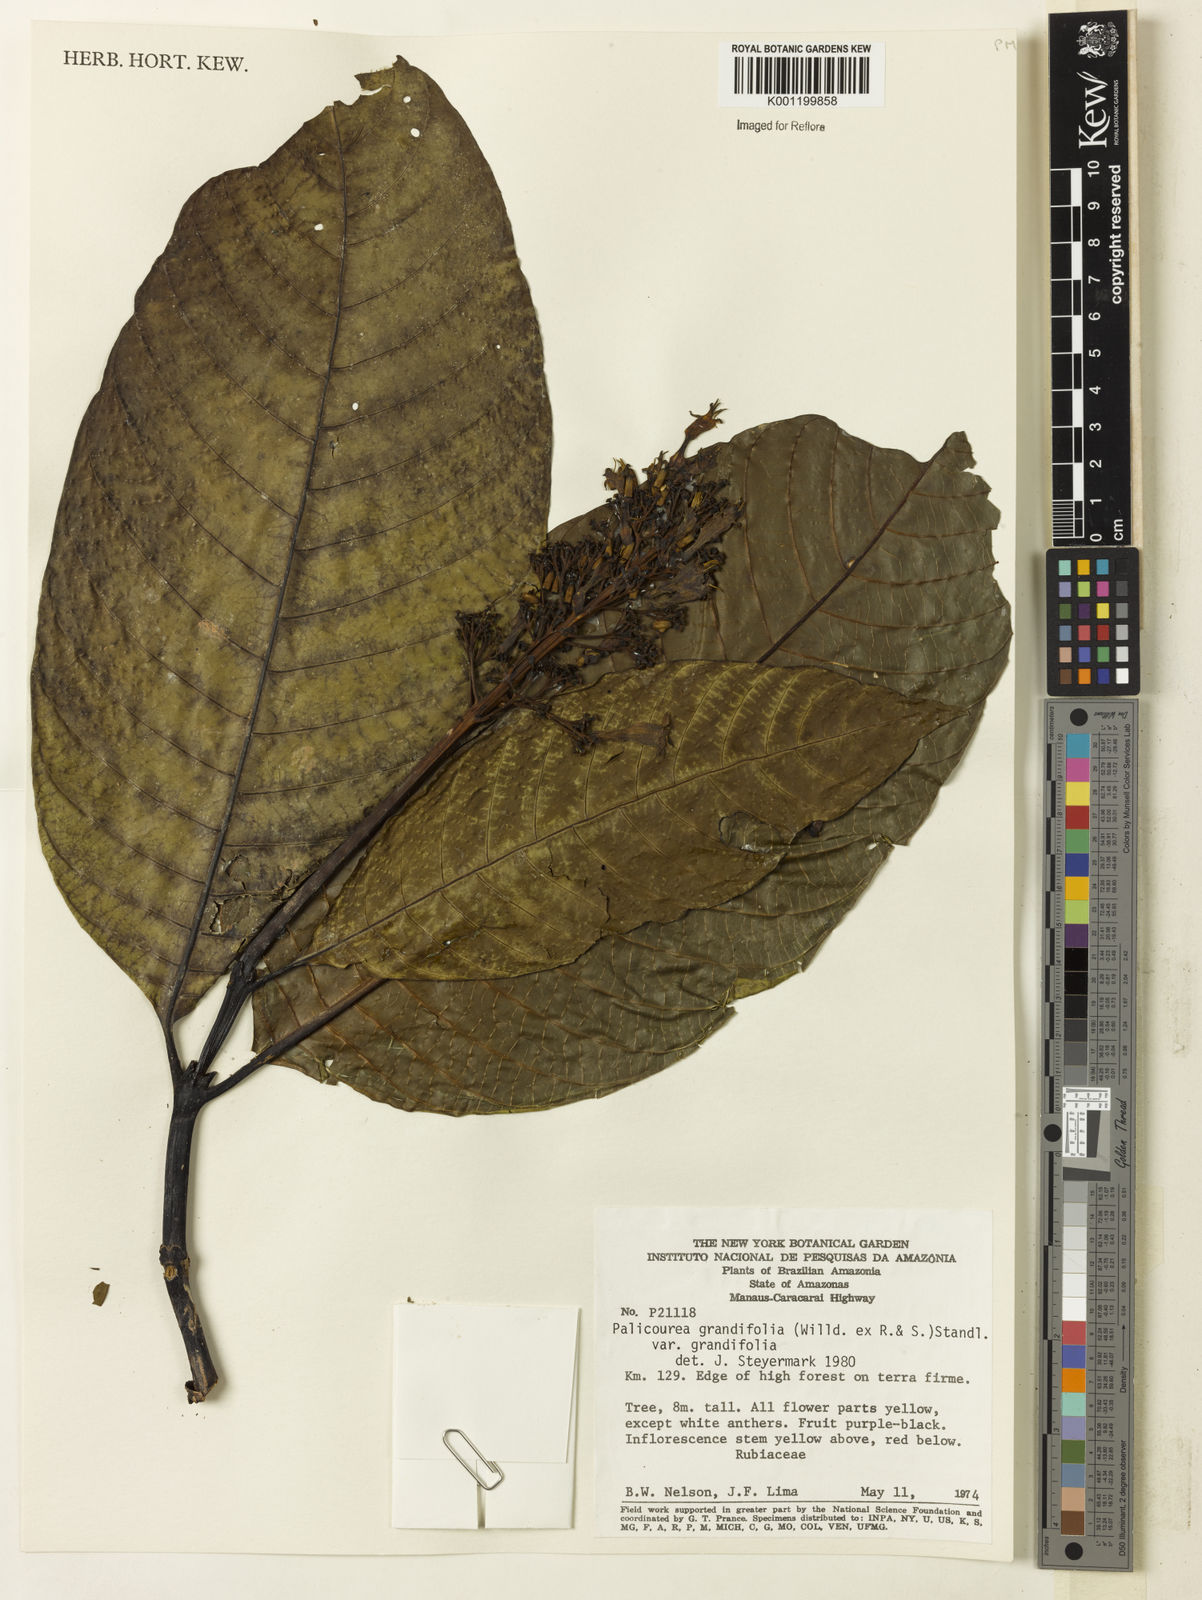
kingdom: Plantae
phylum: Tracheophyta
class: Magnoliopsida
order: Gentianales
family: Rubiaceae
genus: Palicourea
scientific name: Palicourea grandifolia
